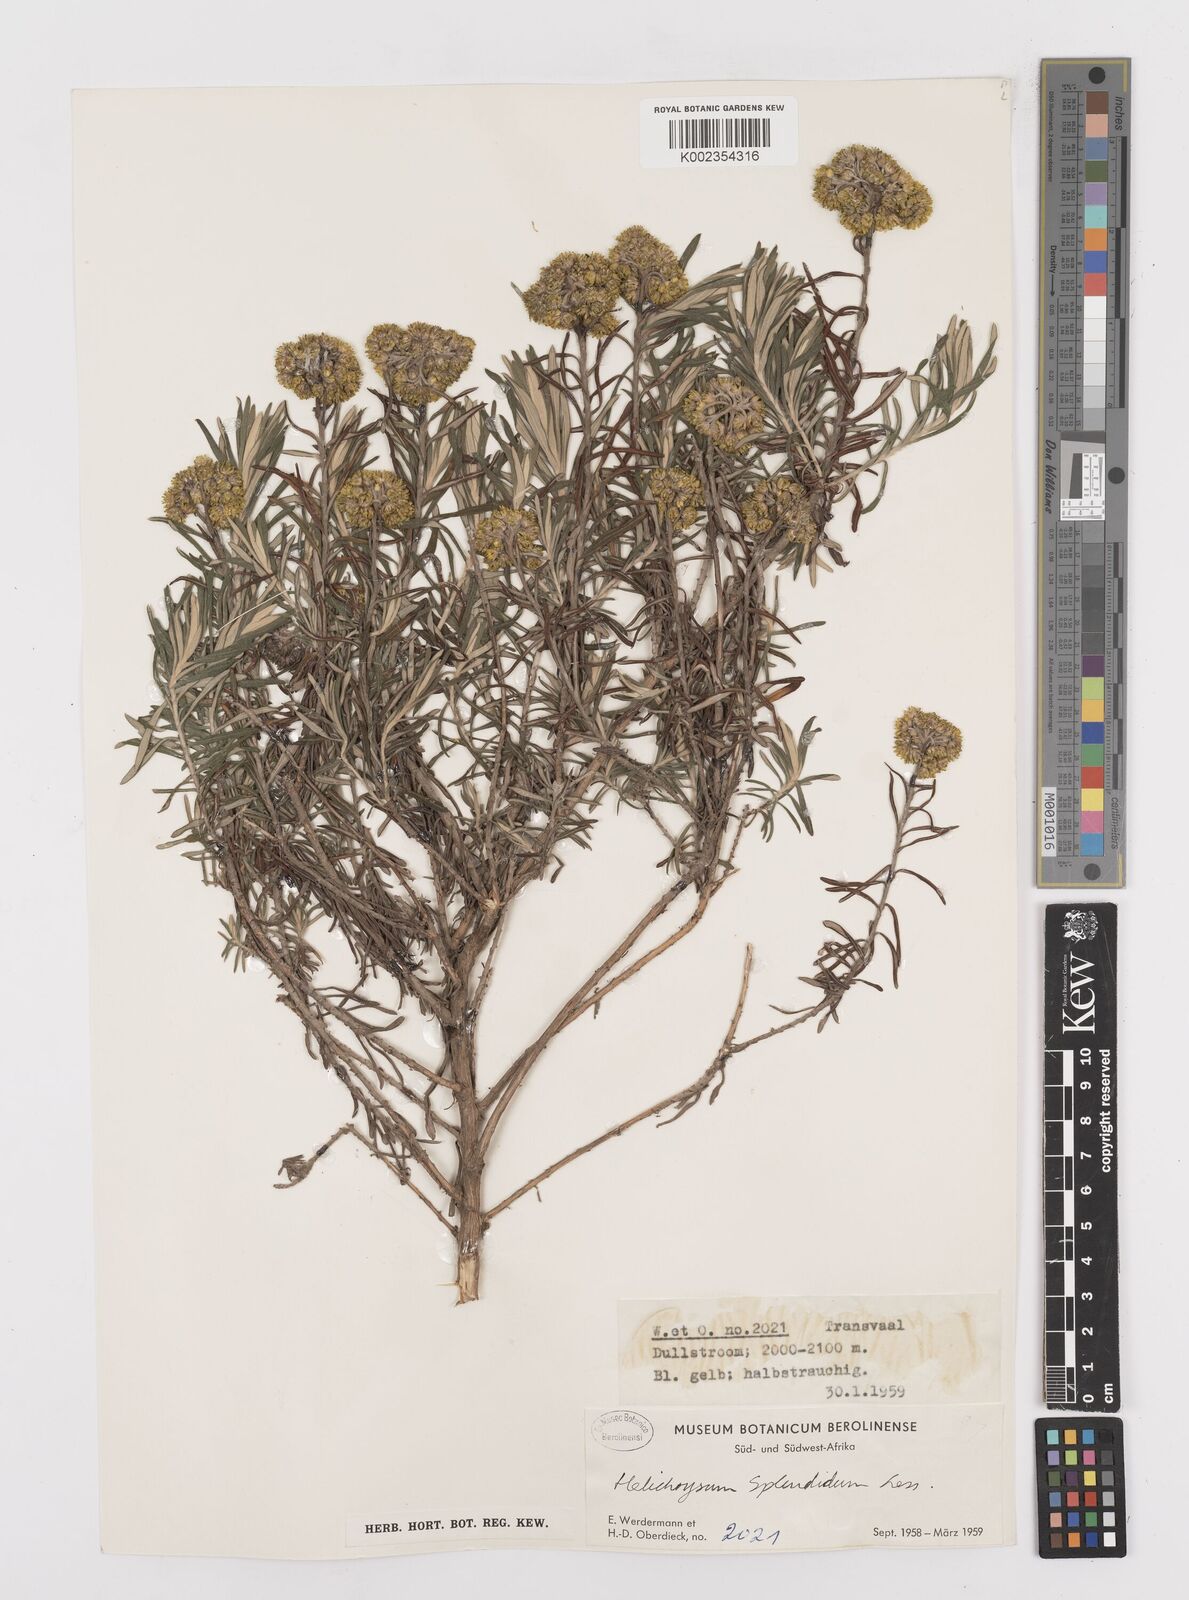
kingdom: Plantae
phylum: Tracheophyta
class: Magnoliopsida
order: Asterales
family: Asteraceae
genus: Helichrysum
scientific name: Helichrysum splendidum
